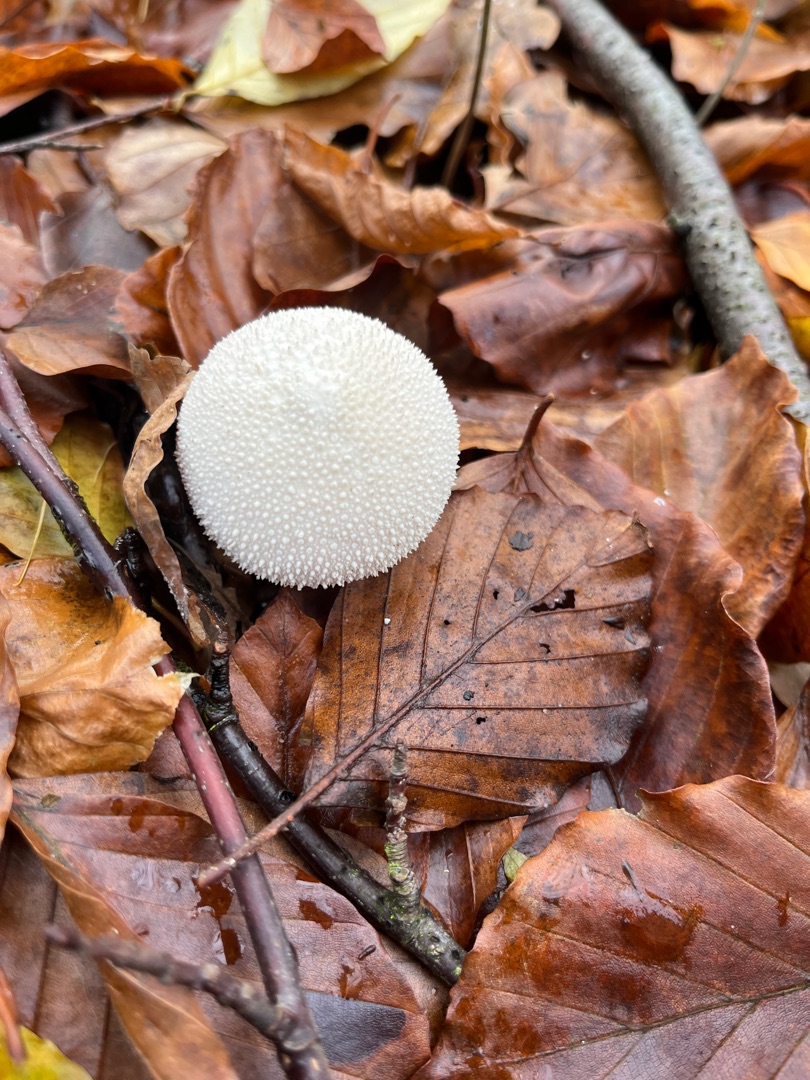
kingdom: Fungi
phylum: Basidiomycota
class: Agaricomycetes
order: Agaricales
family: Lycoperdaceae
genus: Lycoperdon
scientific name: Lycoperdon perlatum
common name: Krystal-støvbold
